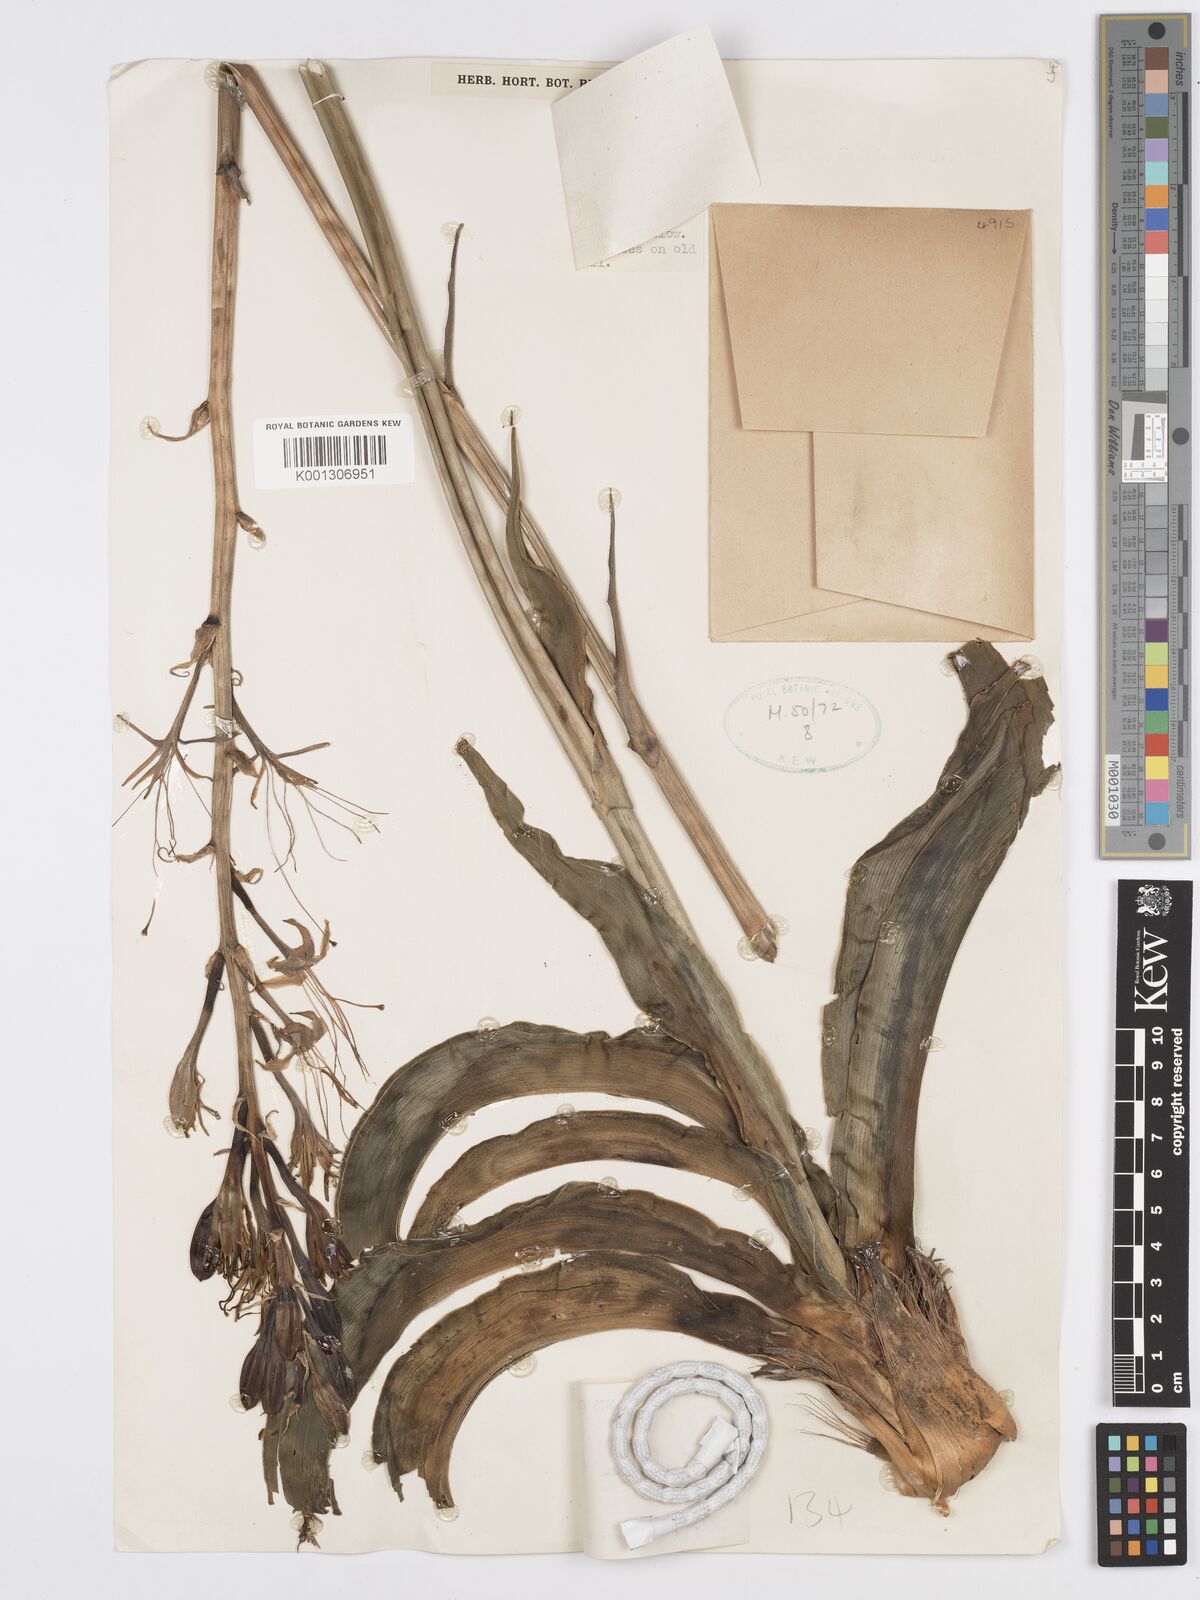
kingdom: Plantae
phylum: Tracheophyta
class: Liliopsida
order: Asparagales
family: Asparagaceae
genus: Agave
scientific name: Agave scabra
